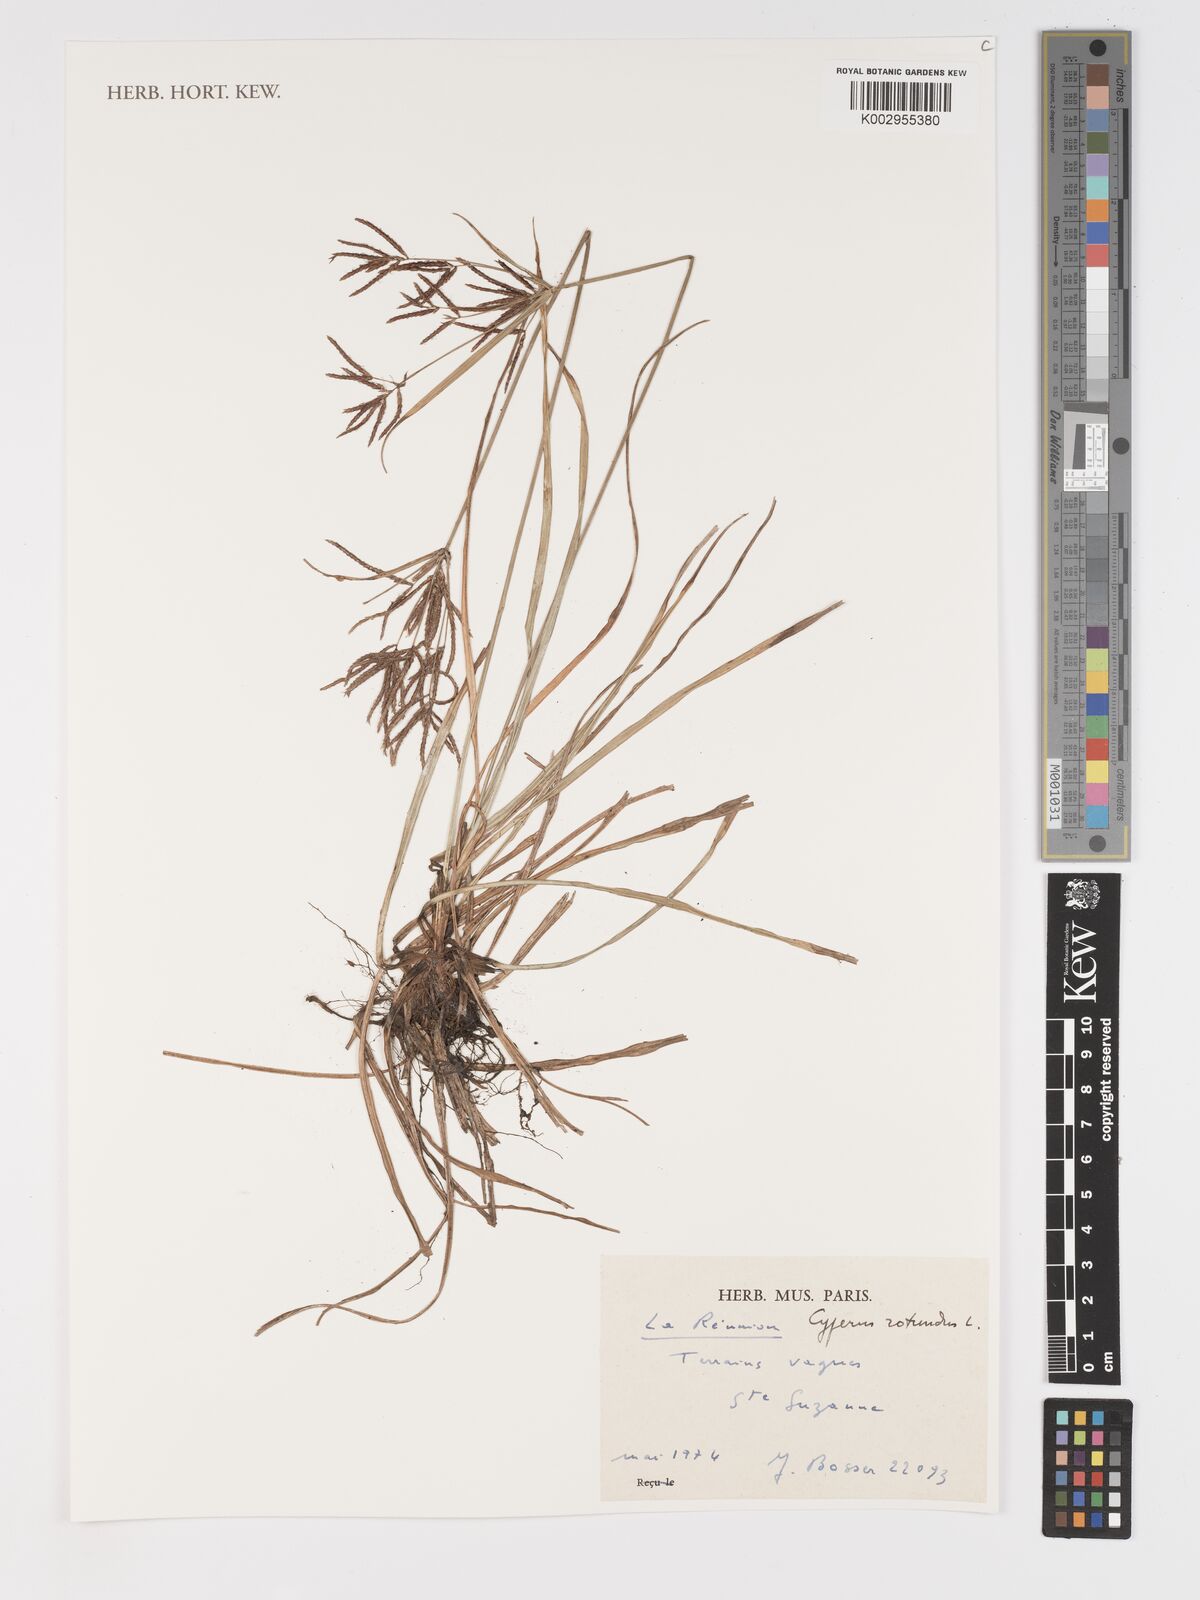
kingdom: Plantae
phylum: Tracheophyta
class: Liliopsida
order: Poales
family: Cyperaceae
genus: Cyperus
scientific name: Cyperus rotundus
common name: Nutgrass
